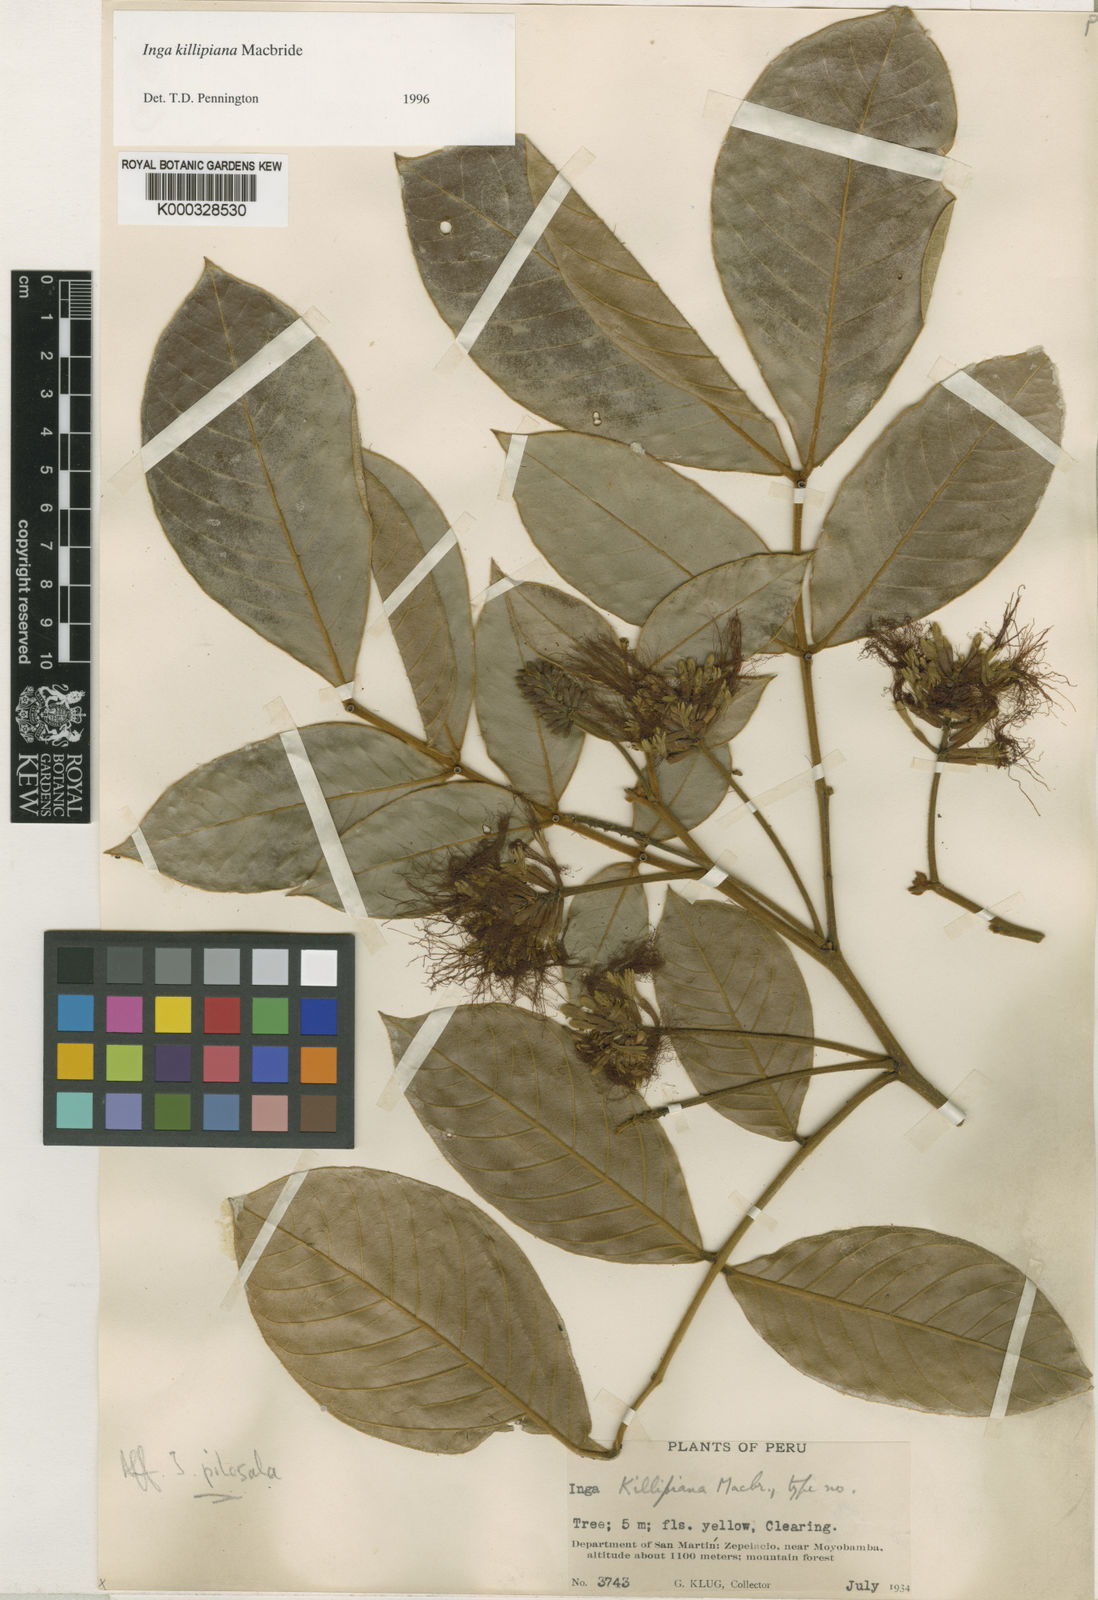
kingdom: Plantae
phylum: Tracheophyta
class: Magnoliopsida
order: Fabales
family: Fabaceae
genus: Inga
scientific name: Inga killipiana
